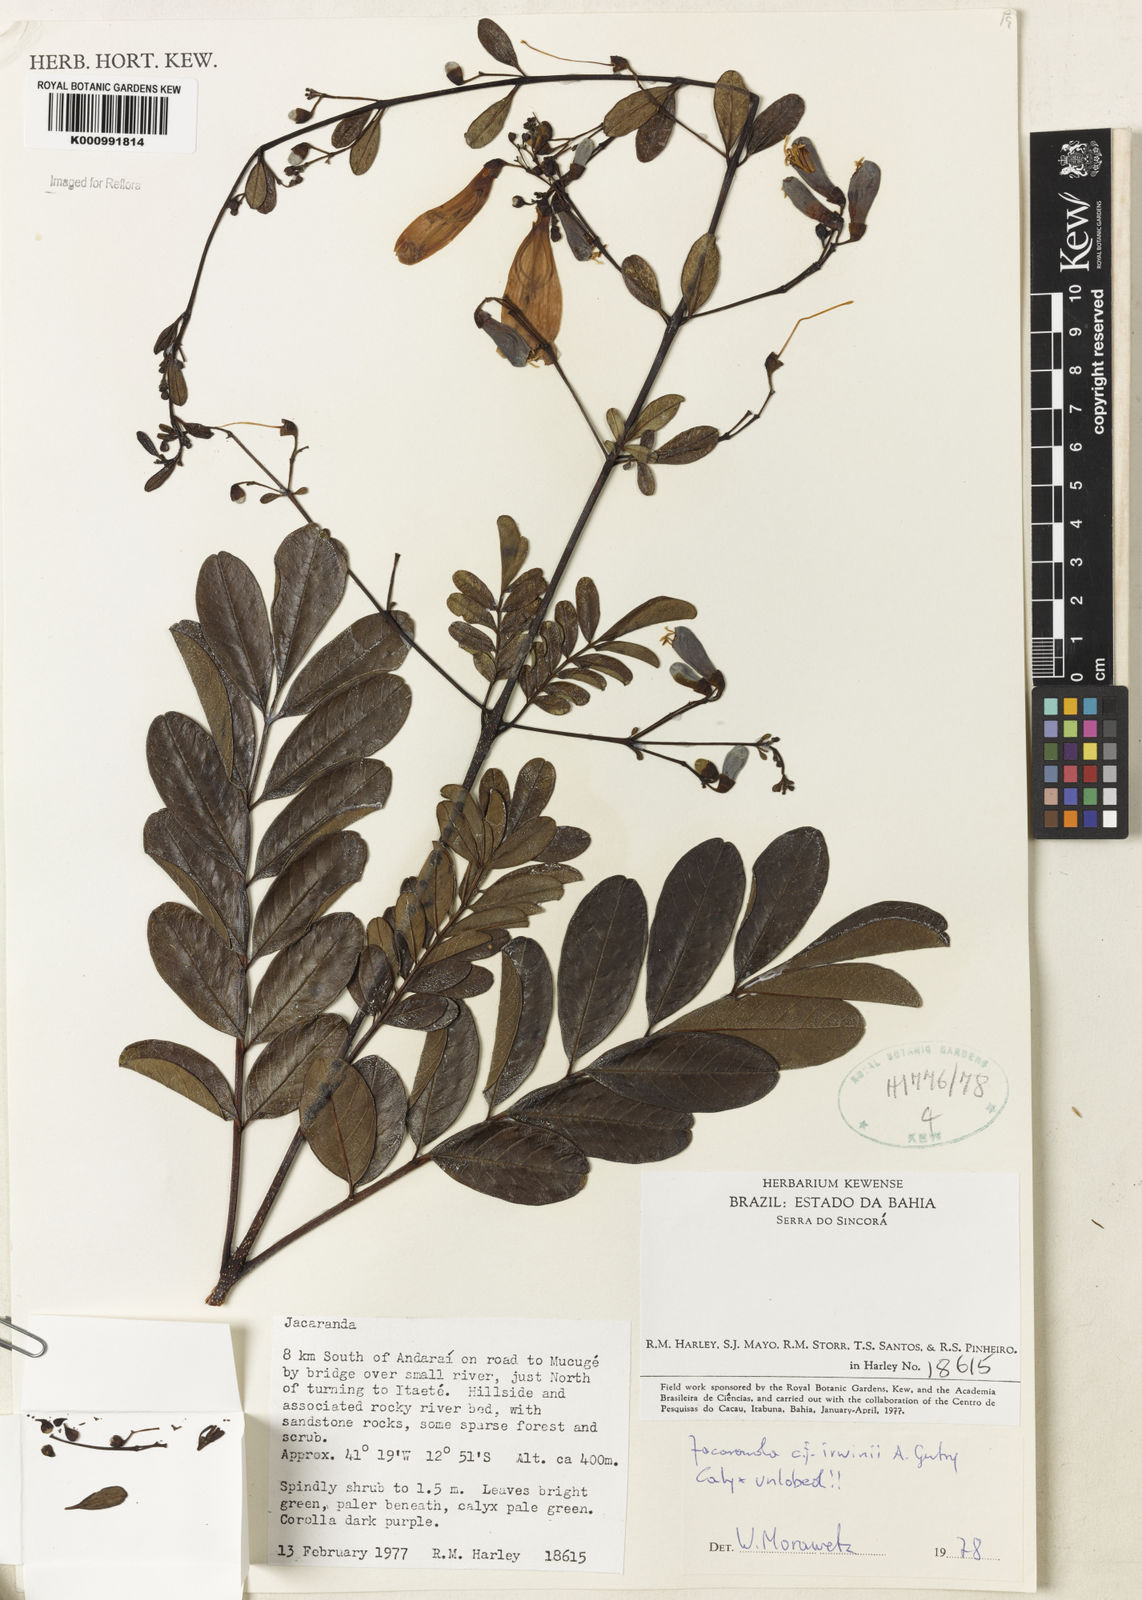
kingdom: Plantae
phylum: Tracheophyta
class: Magnoliopsida
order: Lamiales
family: Bignoniaceae
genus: Jacaranda
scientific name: Jacaranda irwinii
